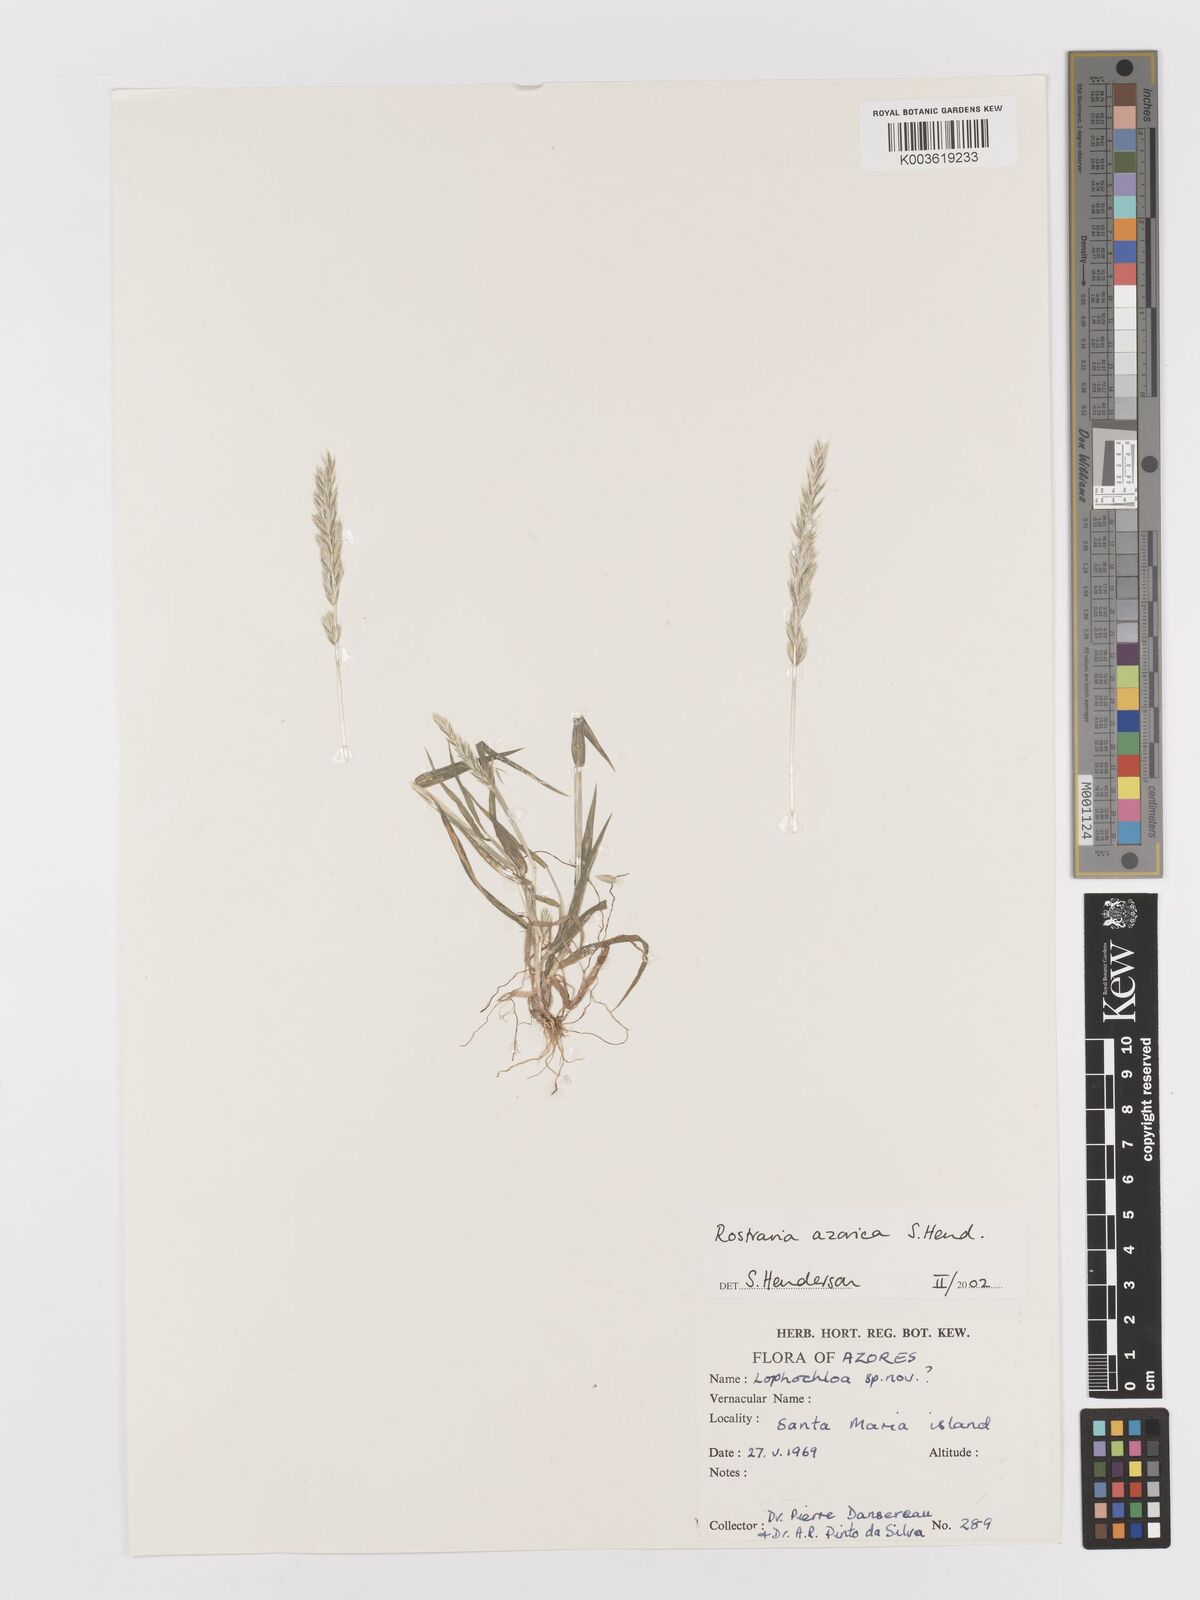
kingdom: Plantae
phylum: Tracheophyta
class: Liliopsida
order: Poales
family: Poaceae
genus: Rostraria
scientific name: Rostraria azorica
